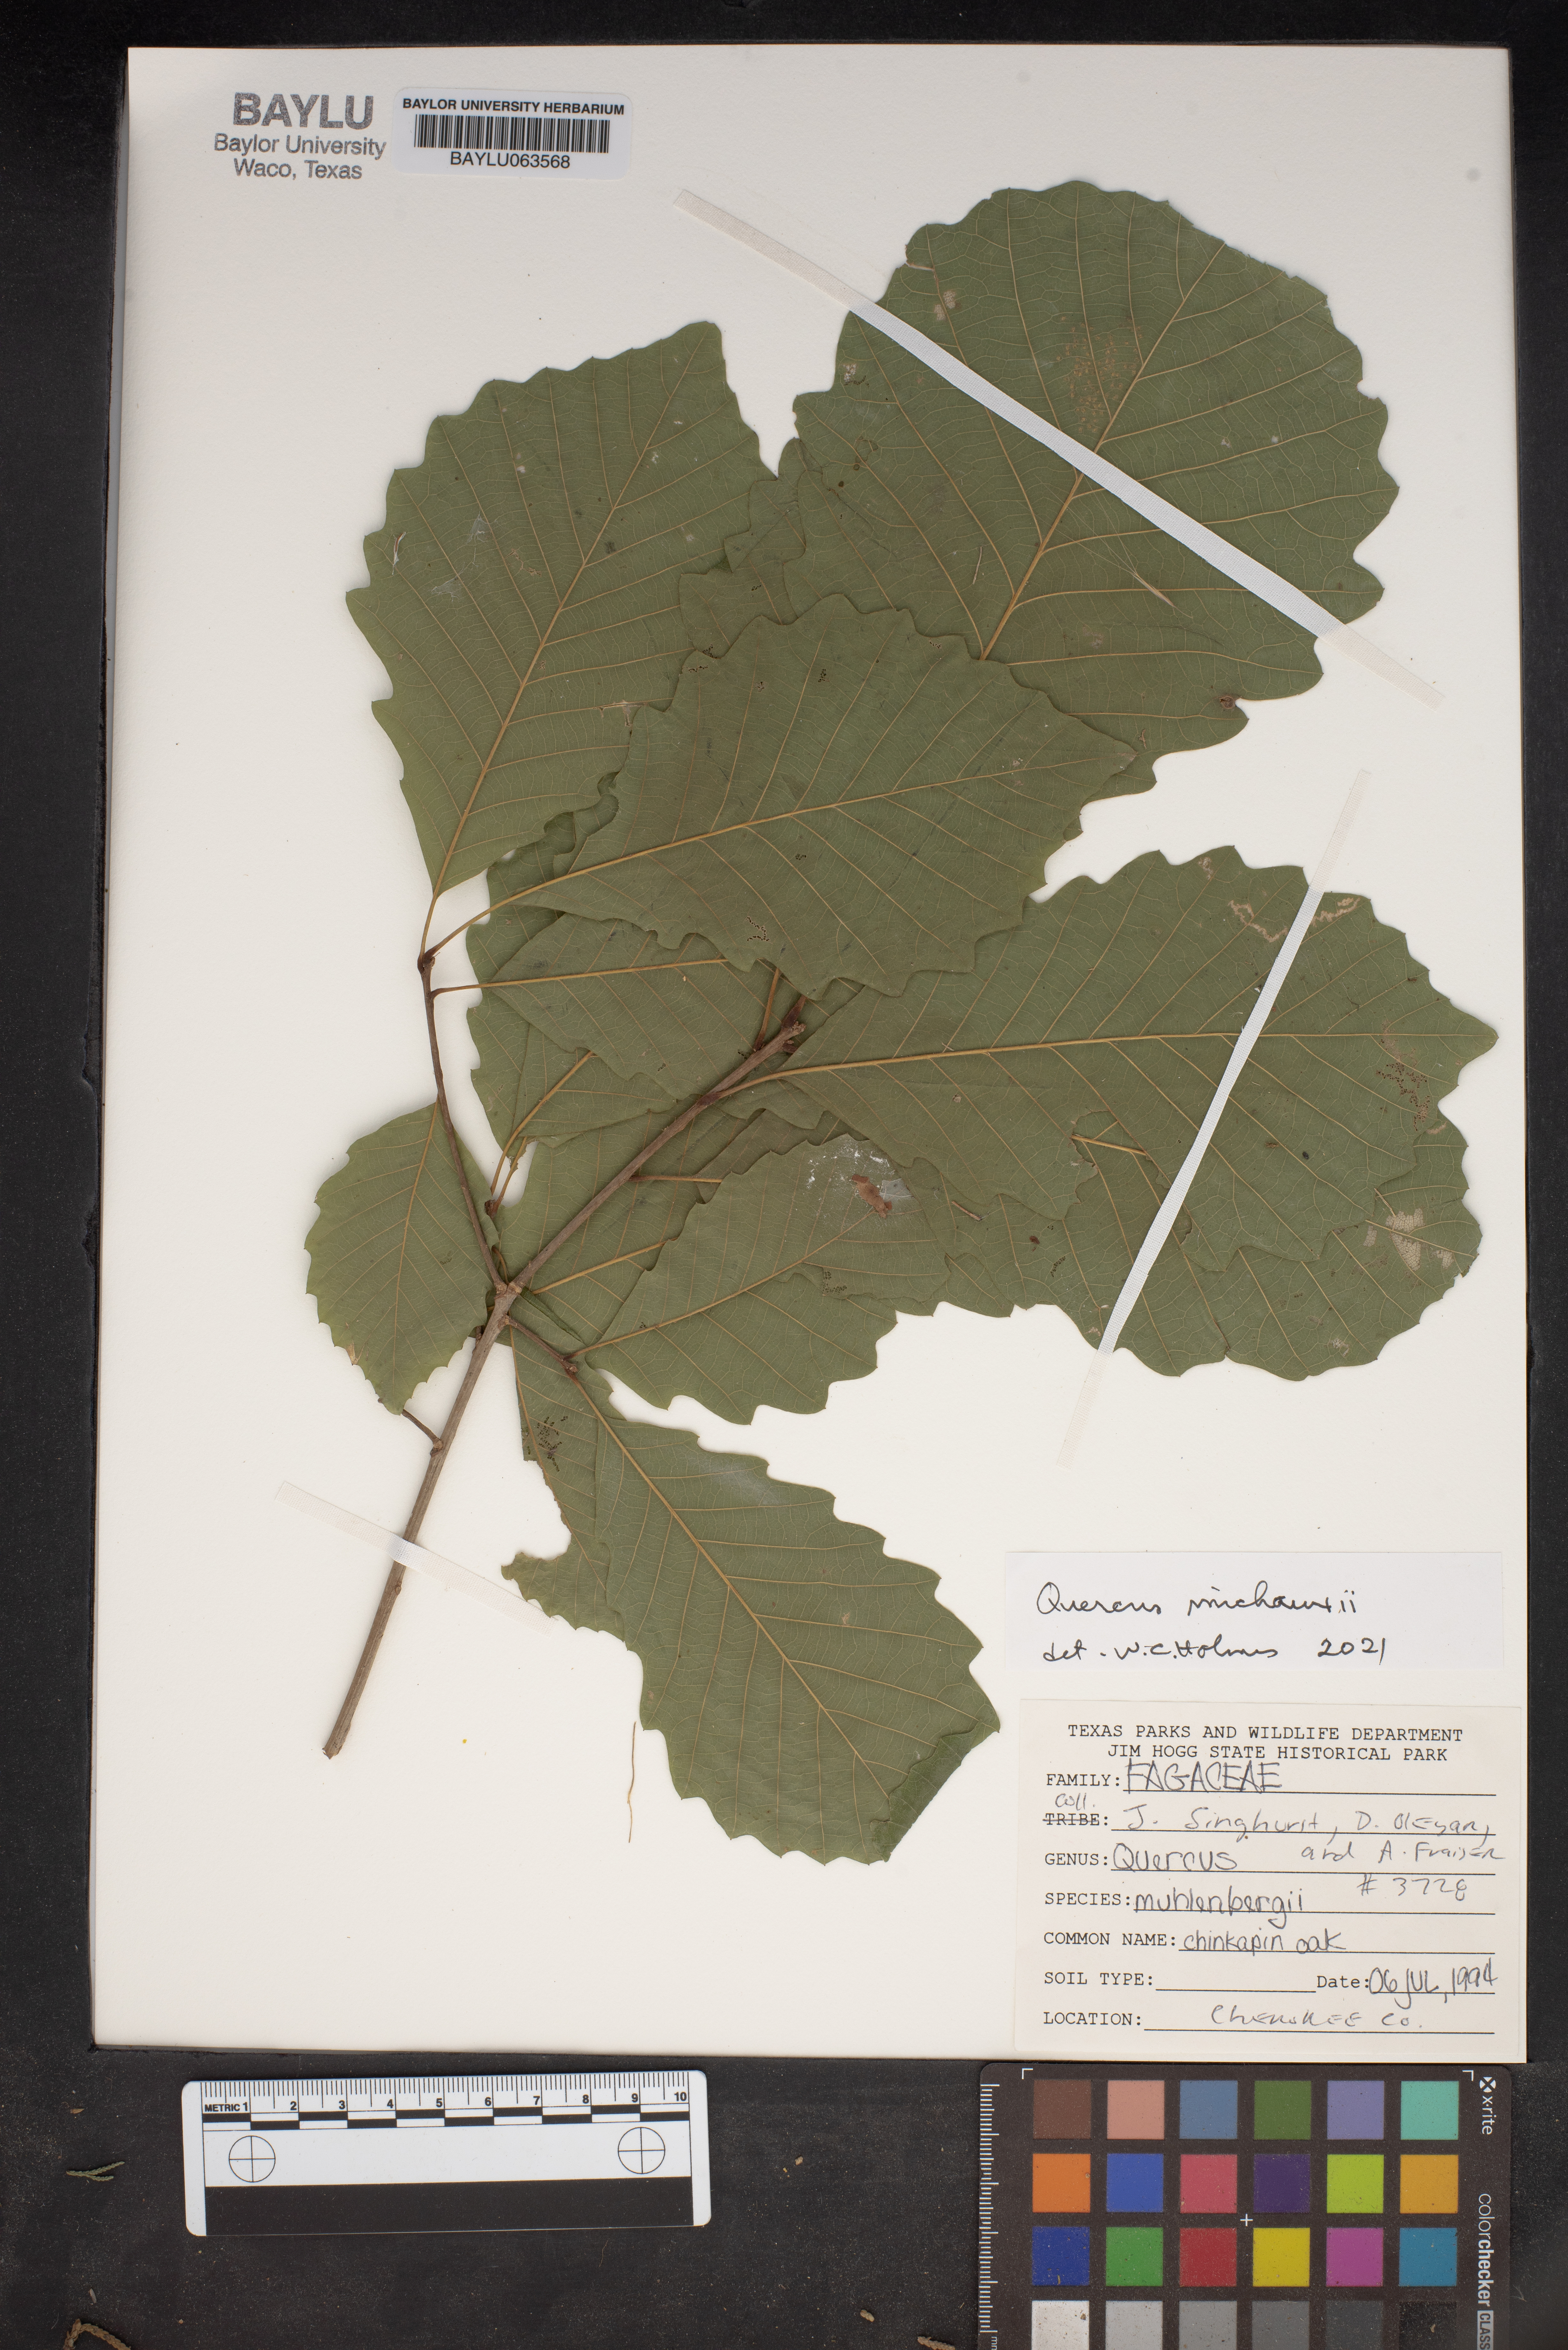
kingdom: Plantae
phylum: Tracheophyta
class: Magnoliopsida
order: Fagales
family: Fagaceae
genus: Quercus
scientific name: Quercus michauxii
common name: Swamp chestnut oak
